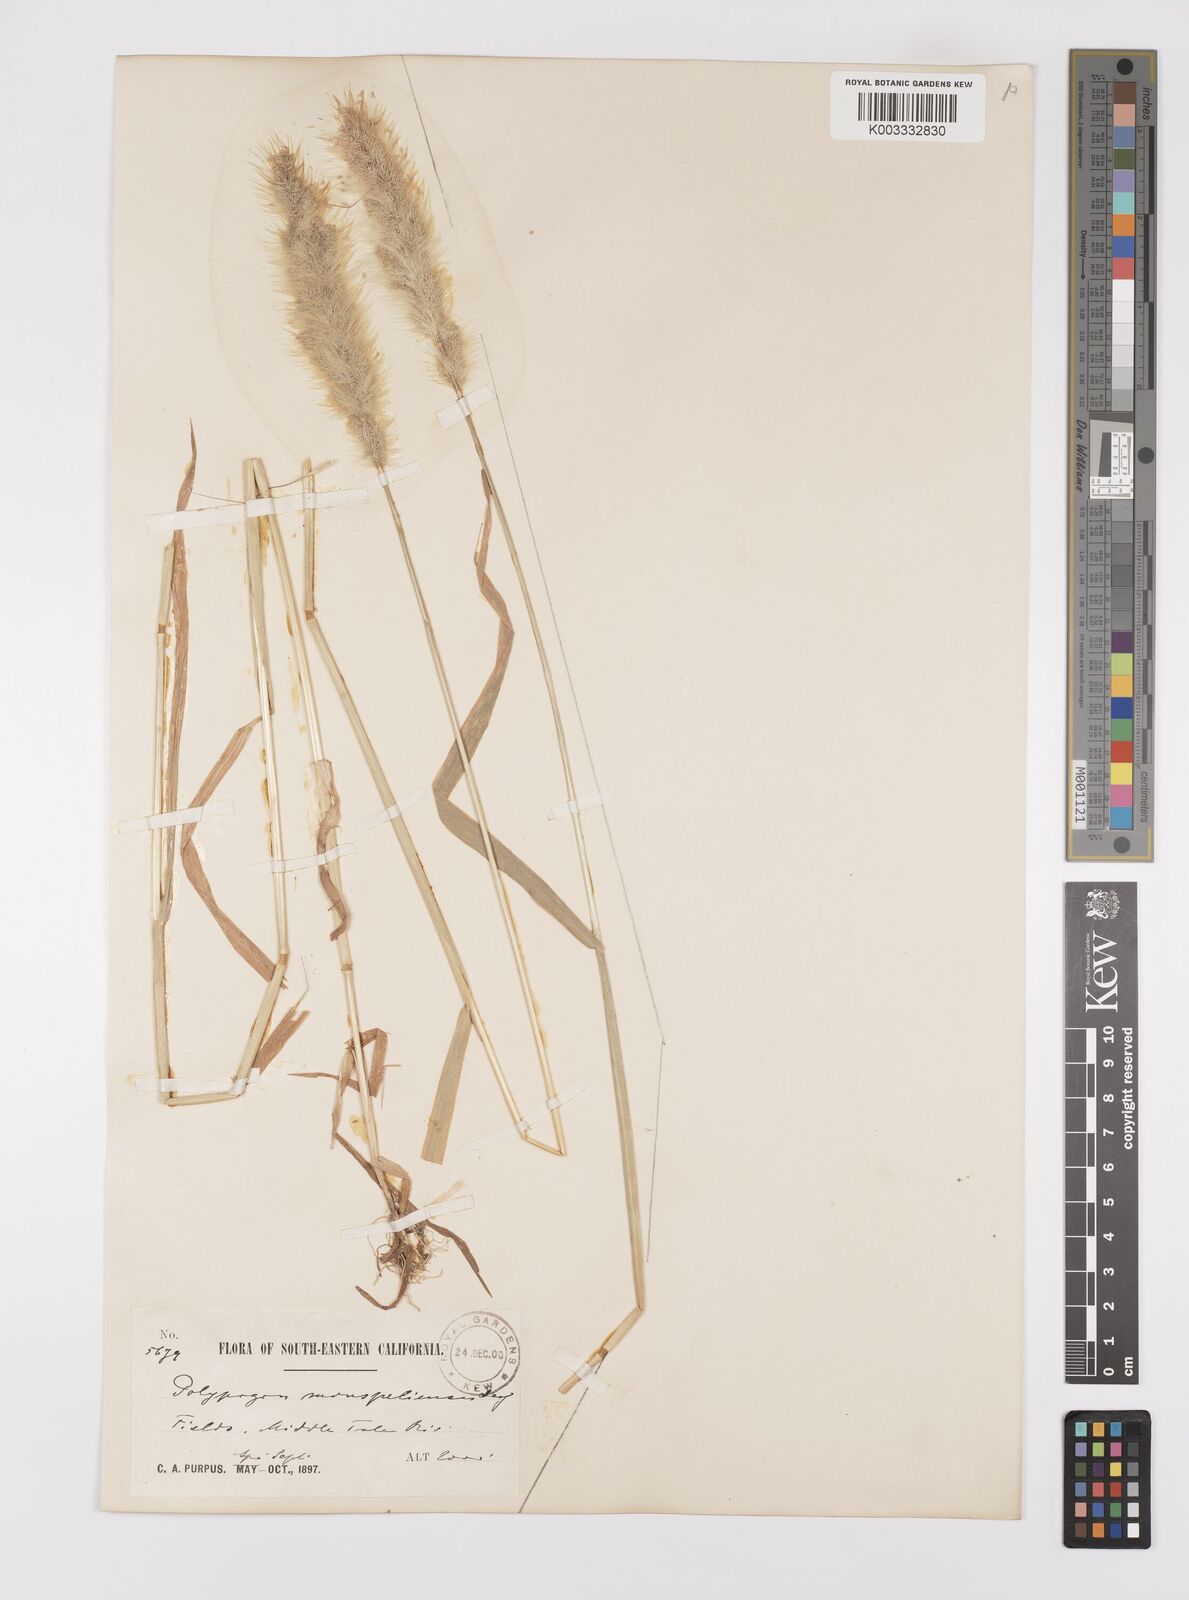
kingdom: Plantae
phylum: Tracheophyta
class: Liliopsida
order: Poales
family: Poaceae
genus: Polypogon
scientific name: Polypogon monspeliensis
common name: Annual rabbitsfoot grass
